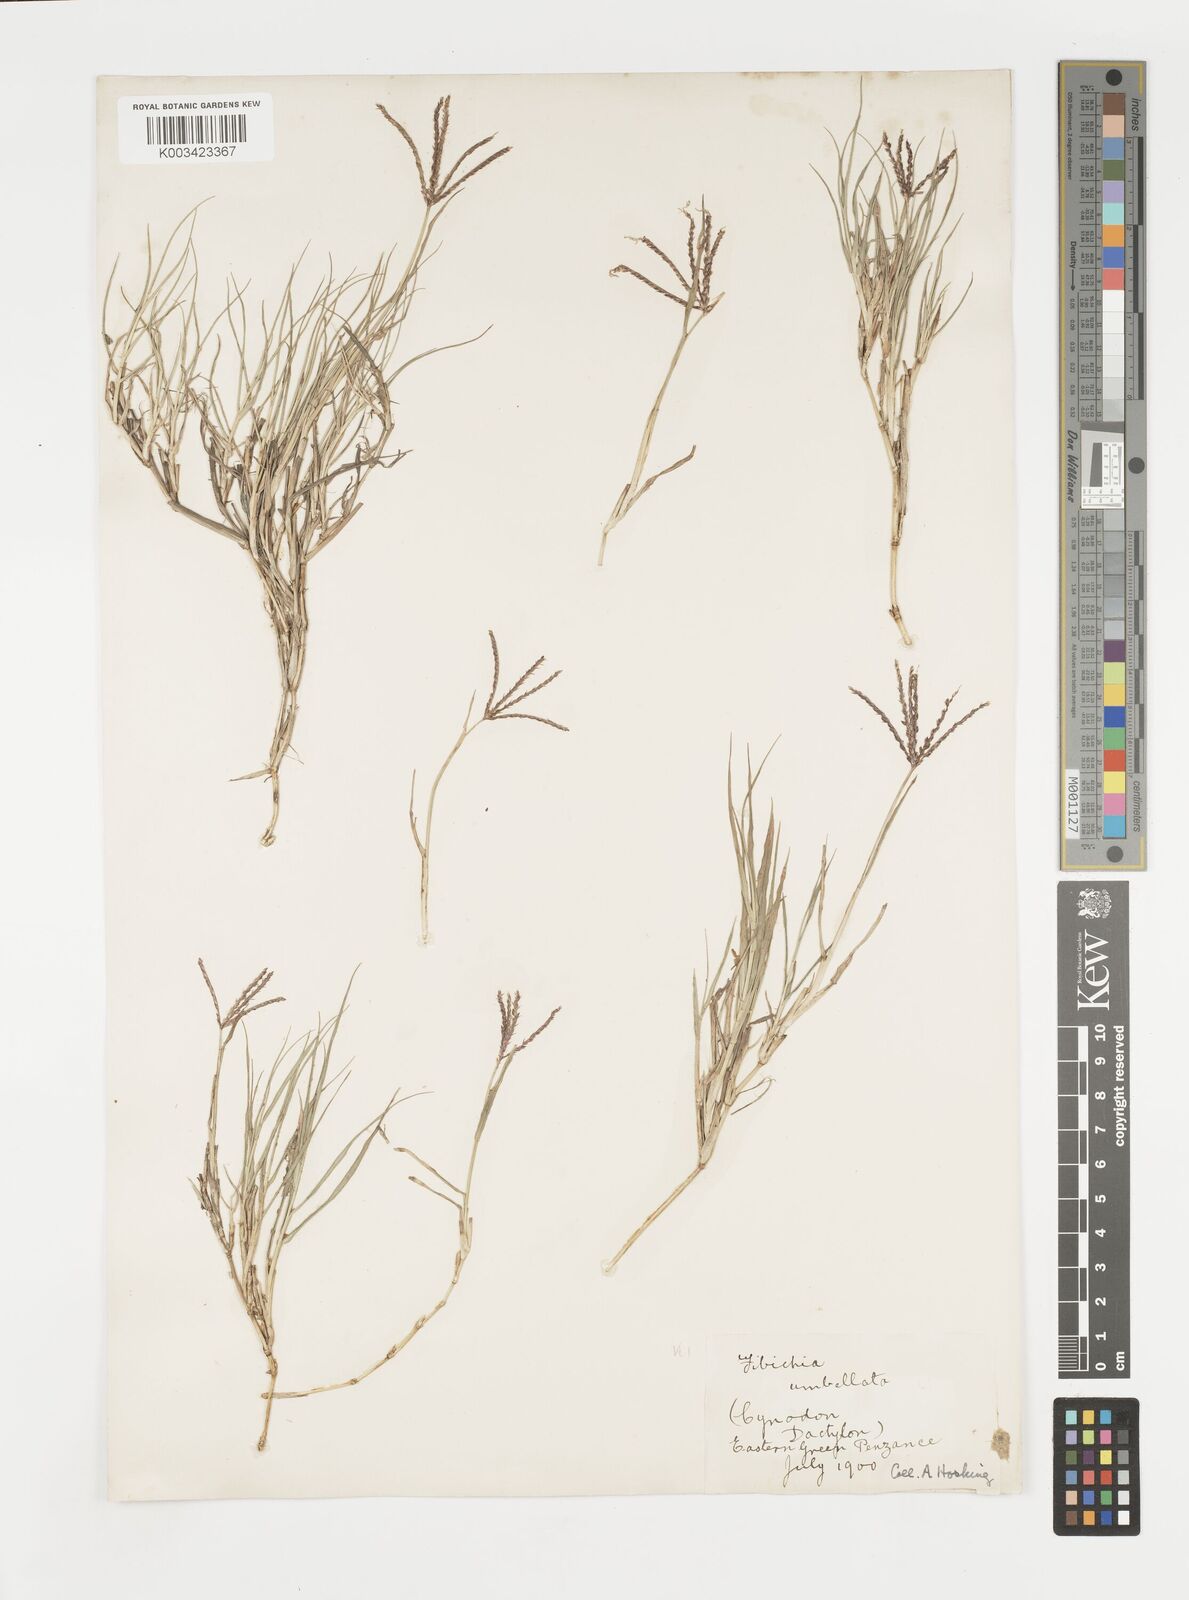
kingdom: Plantae
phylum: Tracheophyta
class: Liliopsida
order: Poales
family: Poaceae
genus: Cynodon
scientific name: Cynodon dactylon
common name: Bermuda grass
